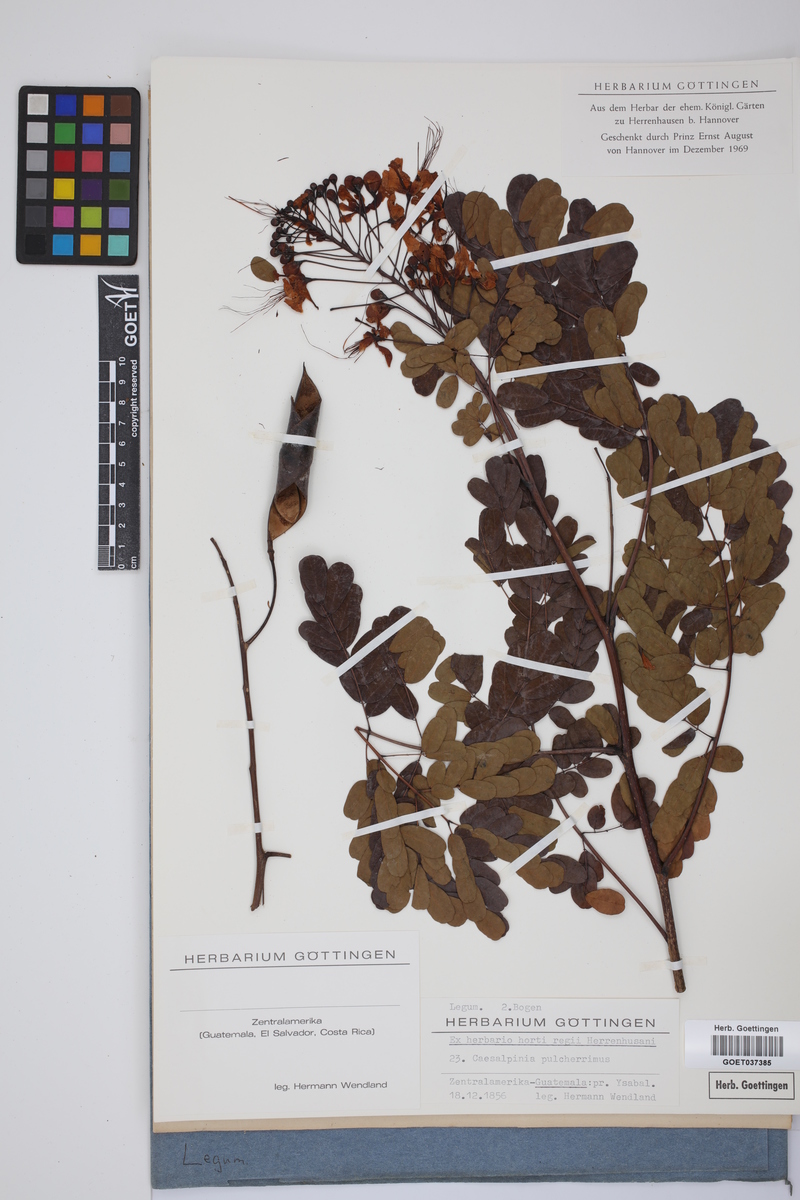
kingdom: Plantae
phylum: Tracheophyta
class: Magnoliopsida
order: Fabales
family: Fabaceae
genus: Caesalpinia
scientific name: Caesalpinia pulcherrima
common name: Pride-of-barbados
